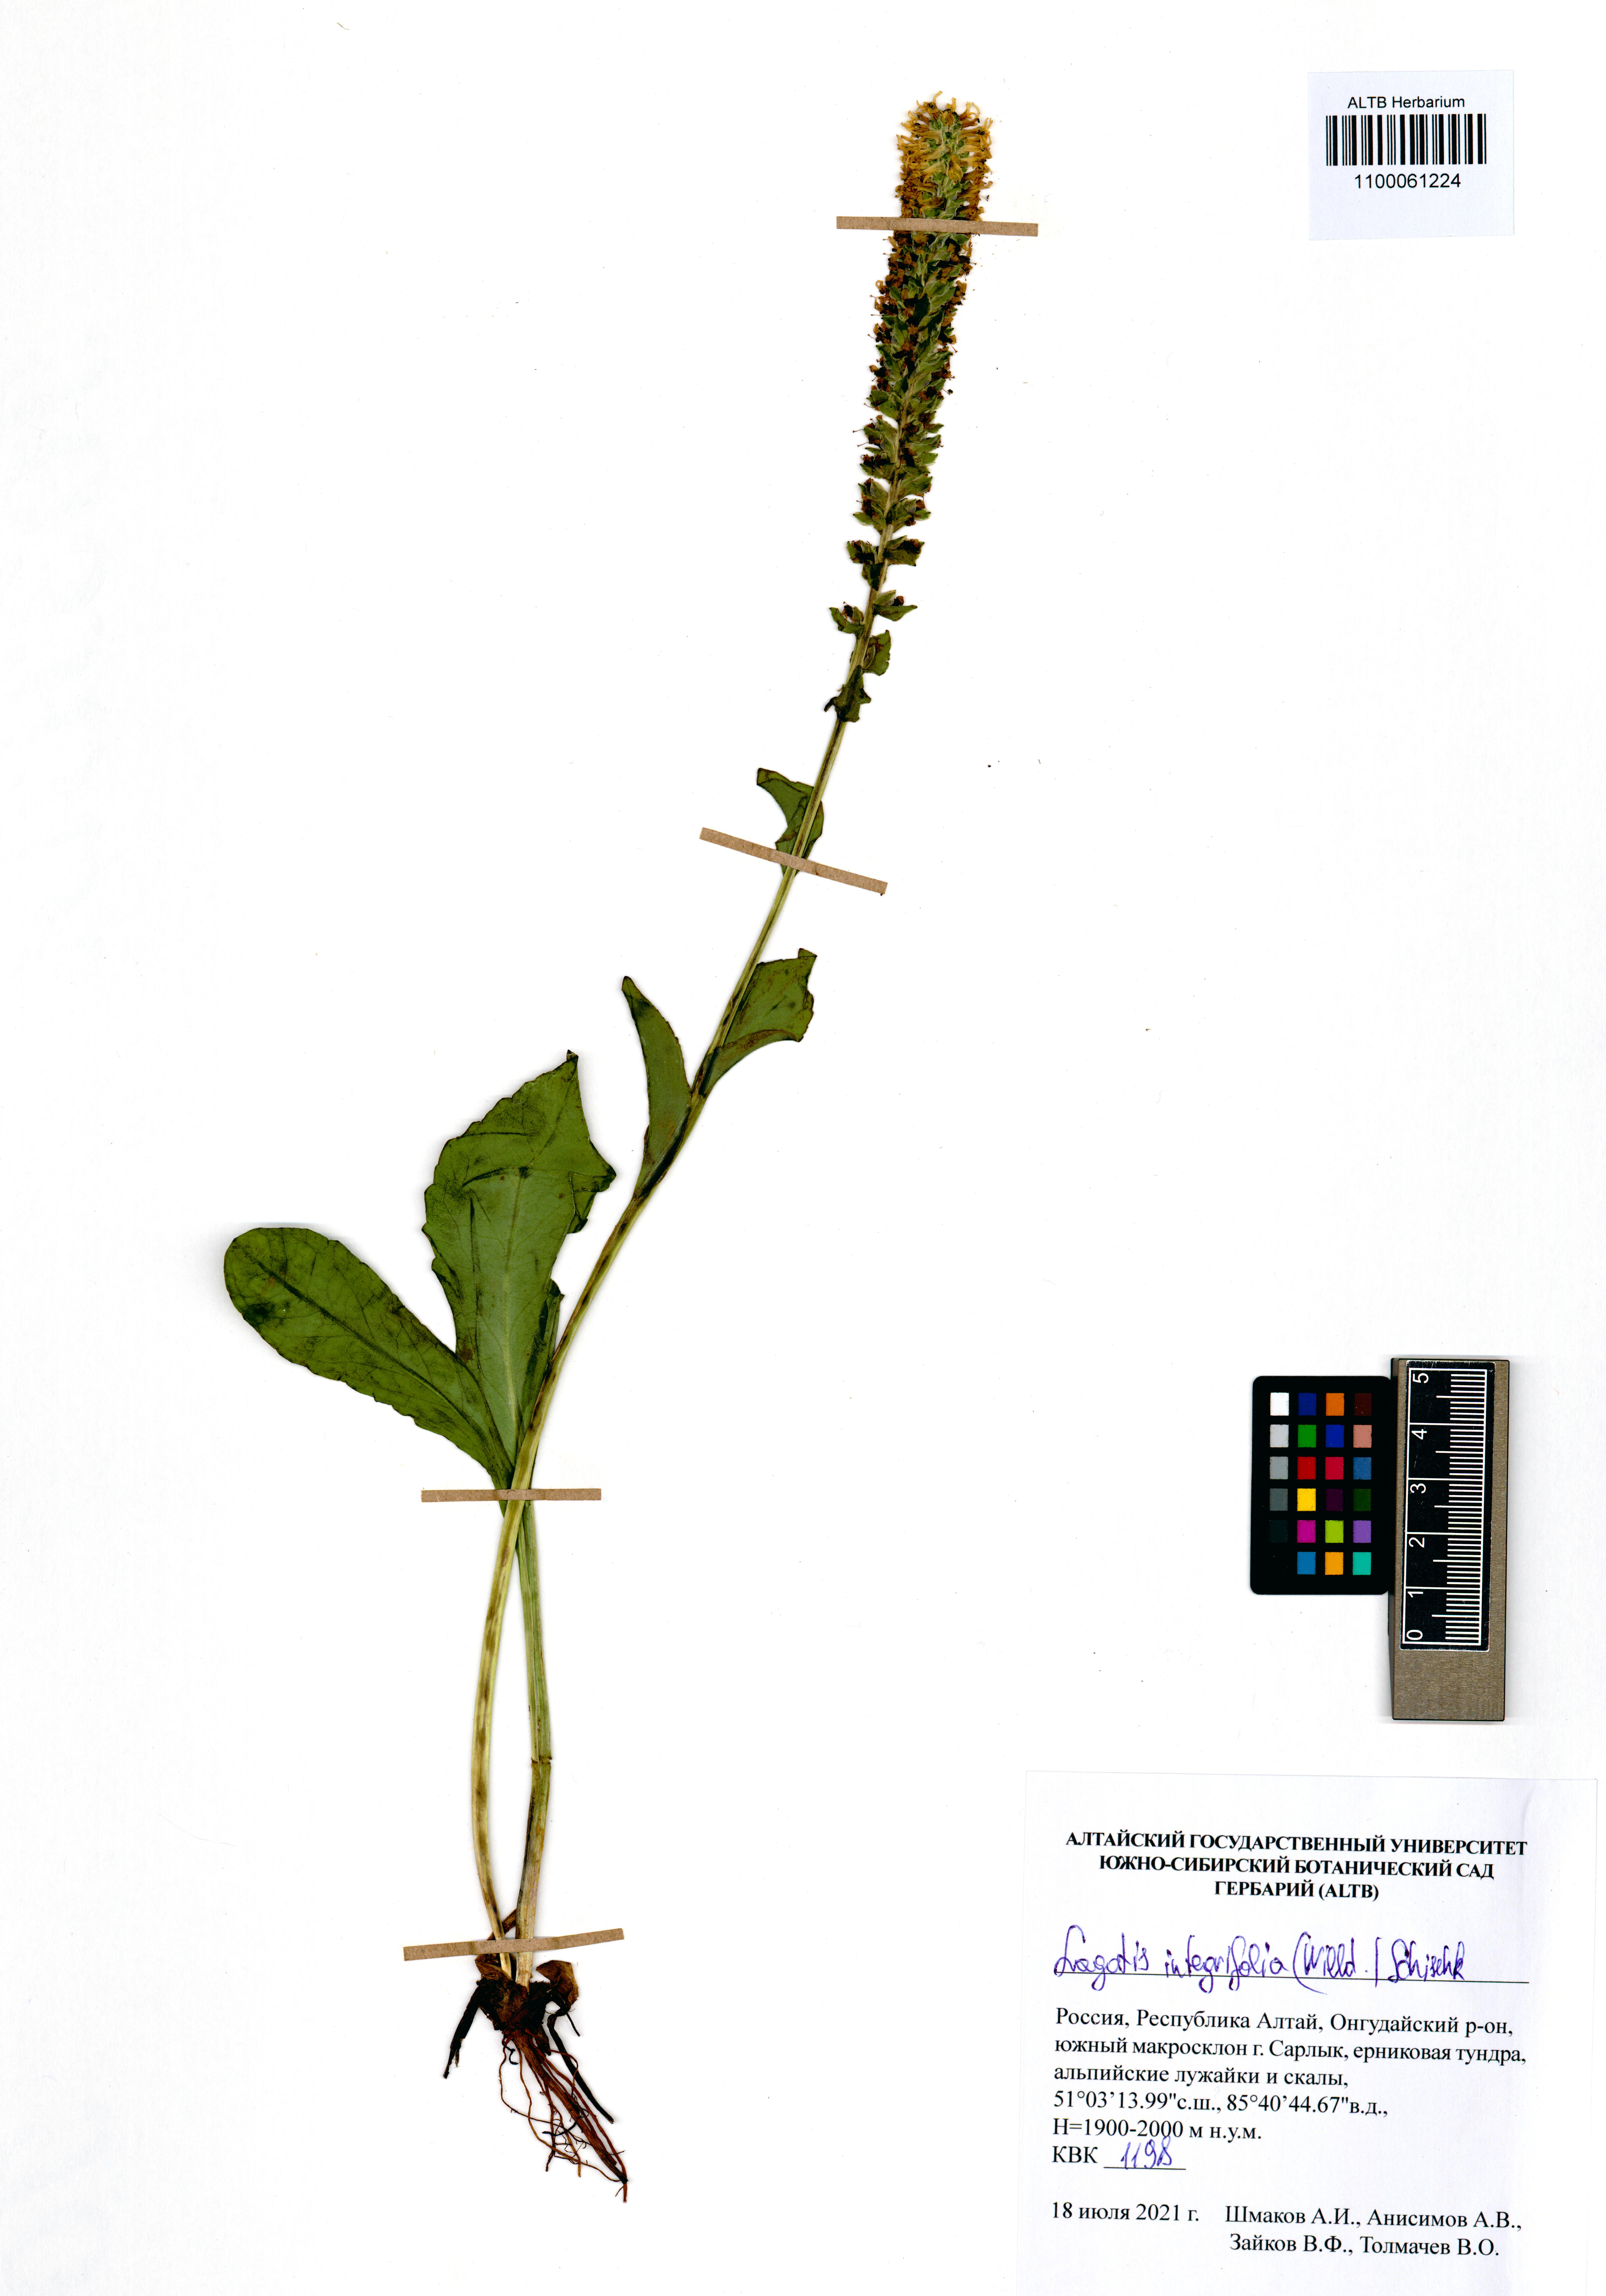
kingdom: Plantae
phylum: Tracheophyta
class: Magnoliopsida
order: Lamiales
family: Plantaginaceae
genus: Lagotis
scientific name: Lagotis integrifolia
